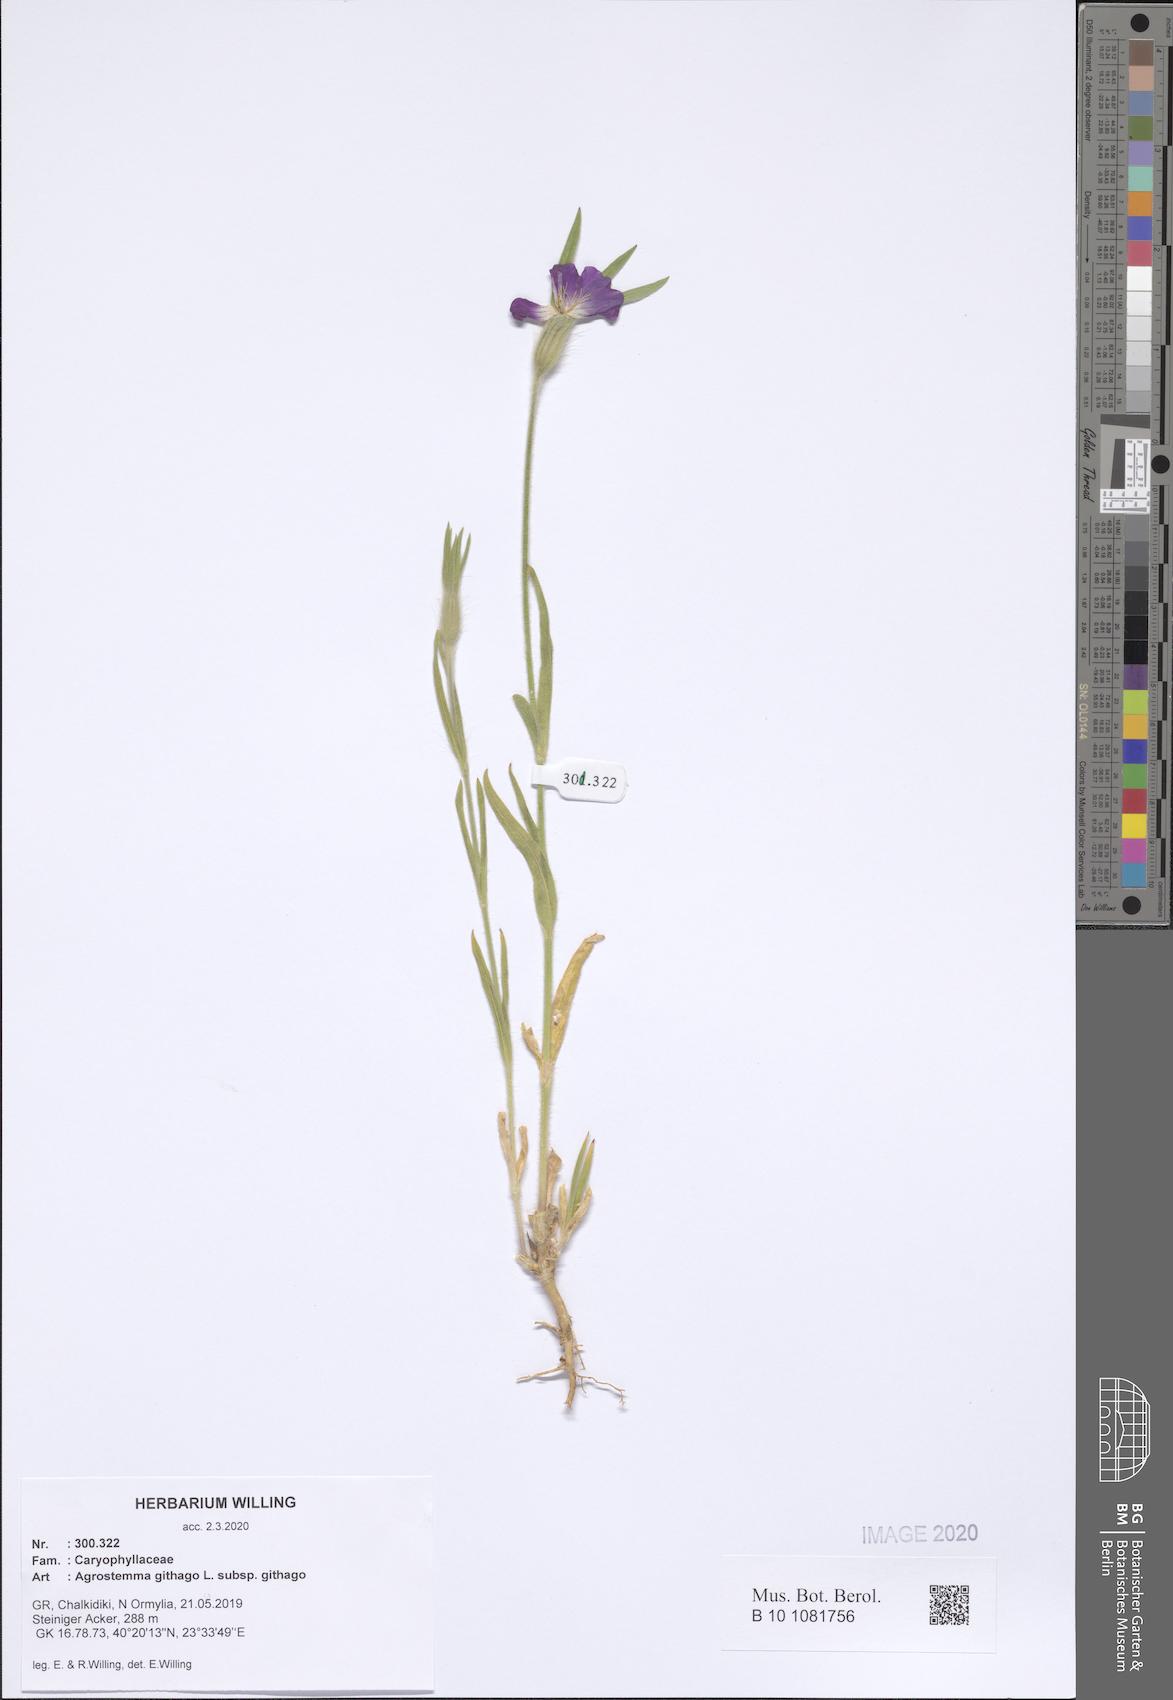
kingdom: Plantae
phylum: Tracheophyta
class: Magnoliopsida
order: Caryophyllales
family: Caryophyllaceae
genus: Agrostemma
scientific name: Agrostemma githago
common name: Common corncockle
